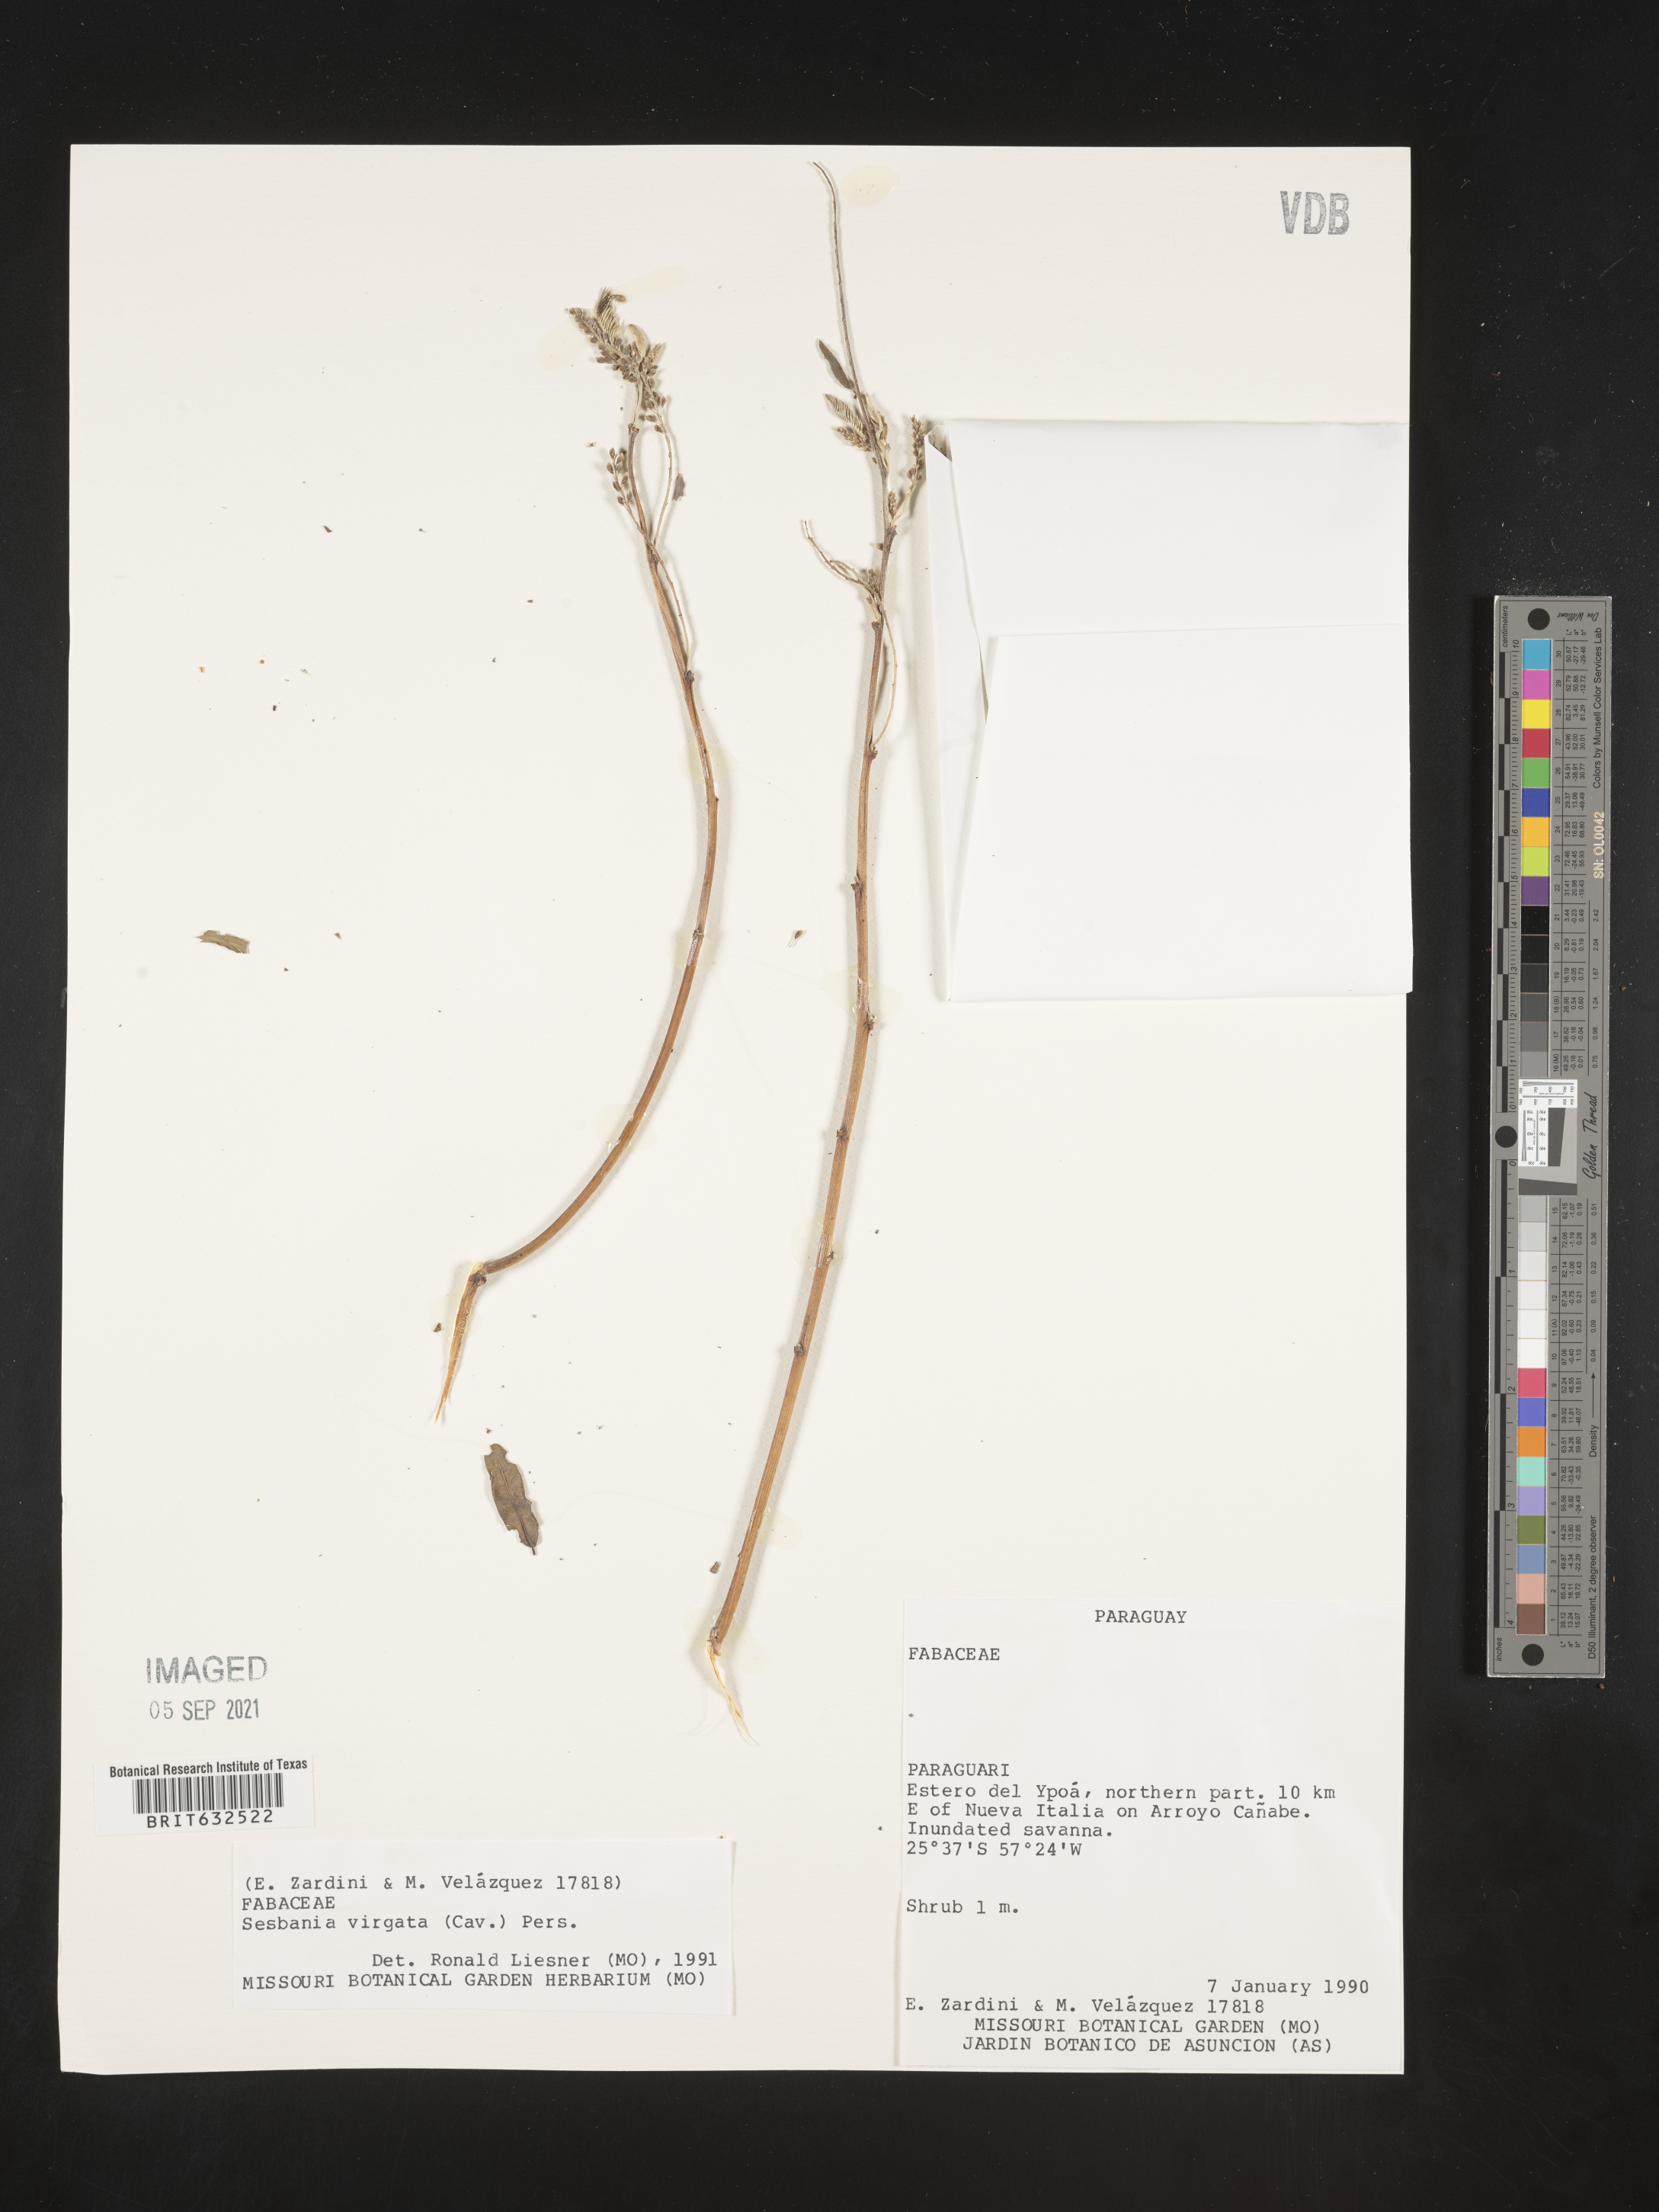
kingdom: Plantae
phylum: Tracheophyta
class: Magnoliopsida
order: Fabales
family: Fabaceae
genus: Sesbania
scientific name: Sesbania
